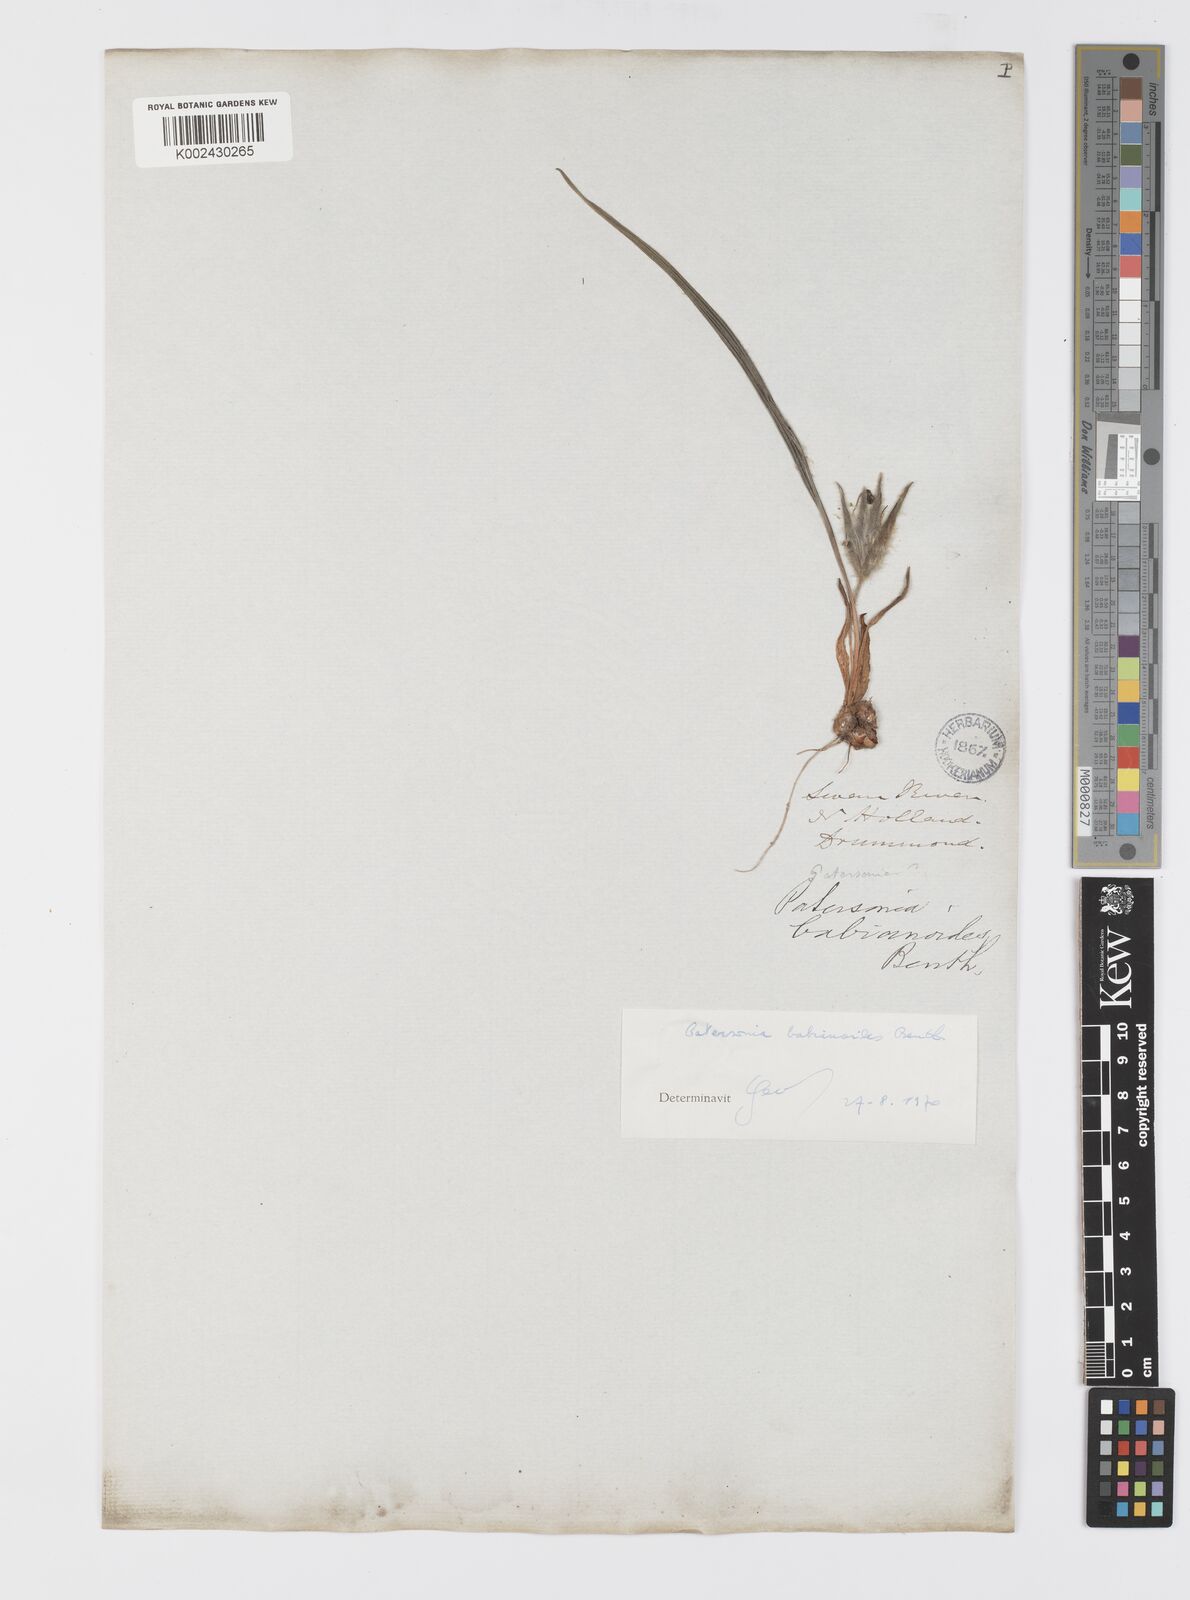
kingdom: Plantae
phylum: Tracheophyta
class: Liliopsida
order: Asparagales
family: Iridaceae
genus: Patersonia
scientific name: Patersonia babianoides
